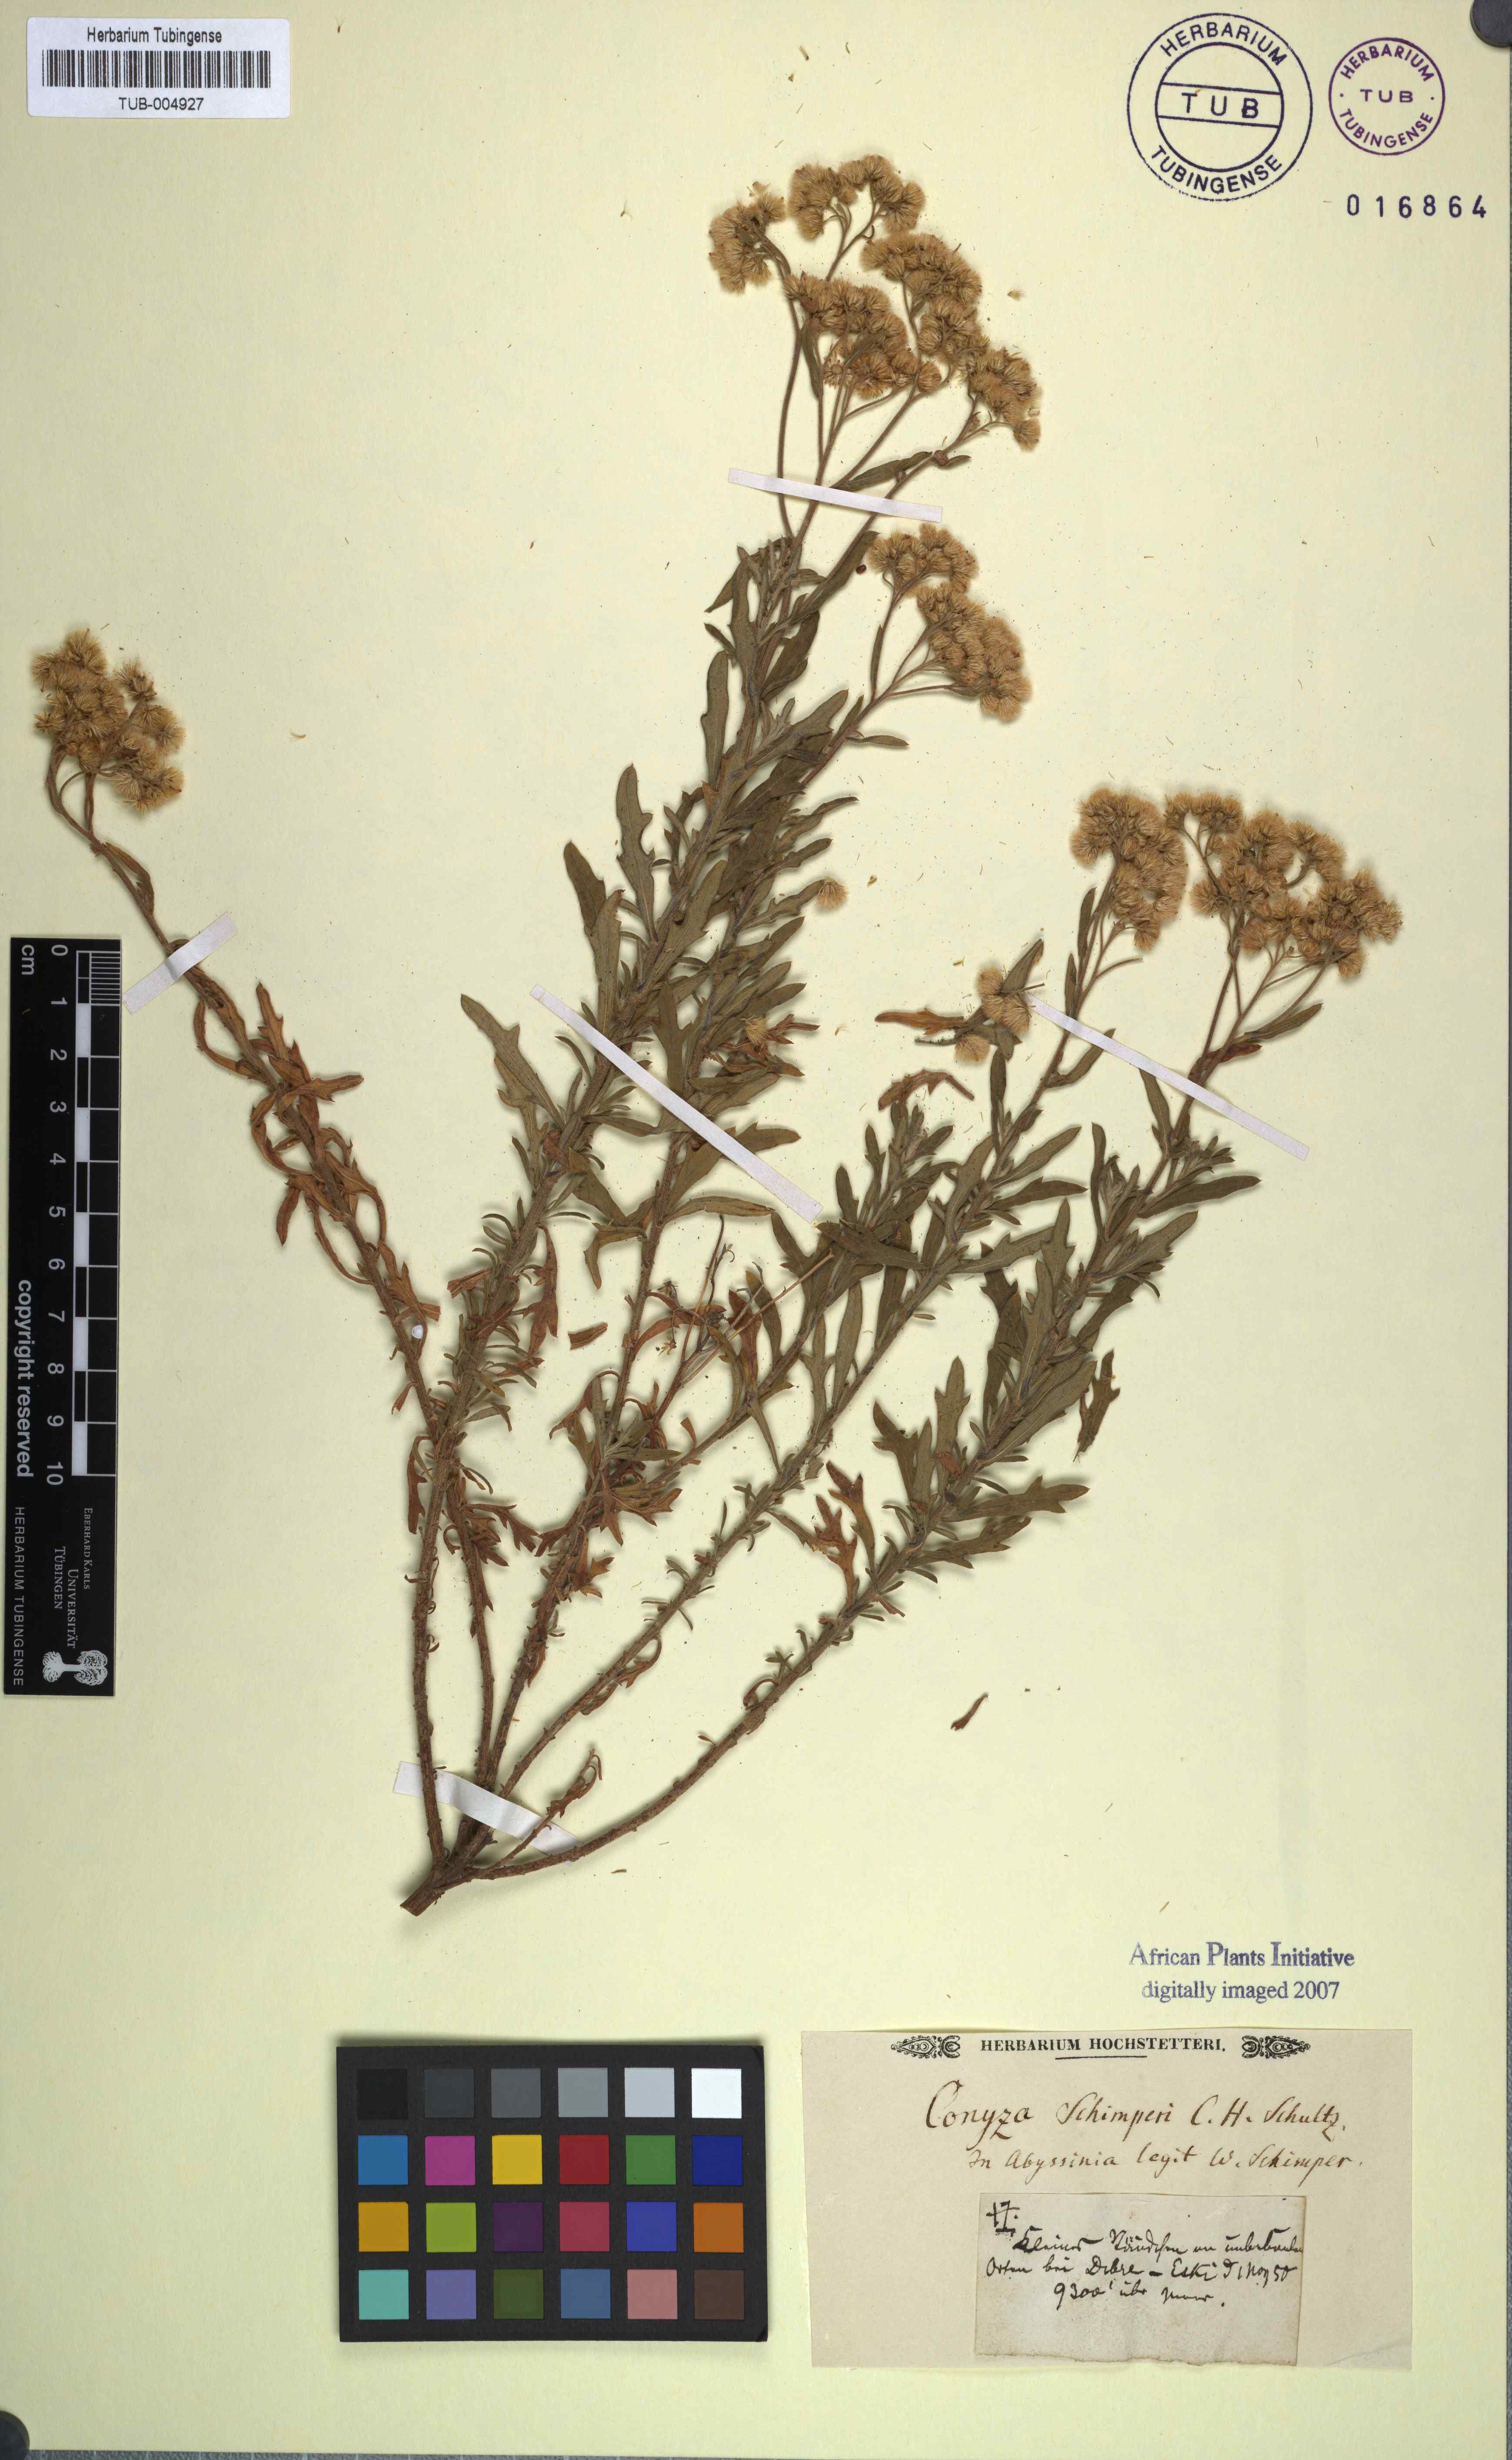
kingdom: Plantae
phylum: Tracheophyta
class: Magnoliopsida
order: Asterales
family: Asteraceae
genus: Nidorella
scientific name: Nidorella triloba
